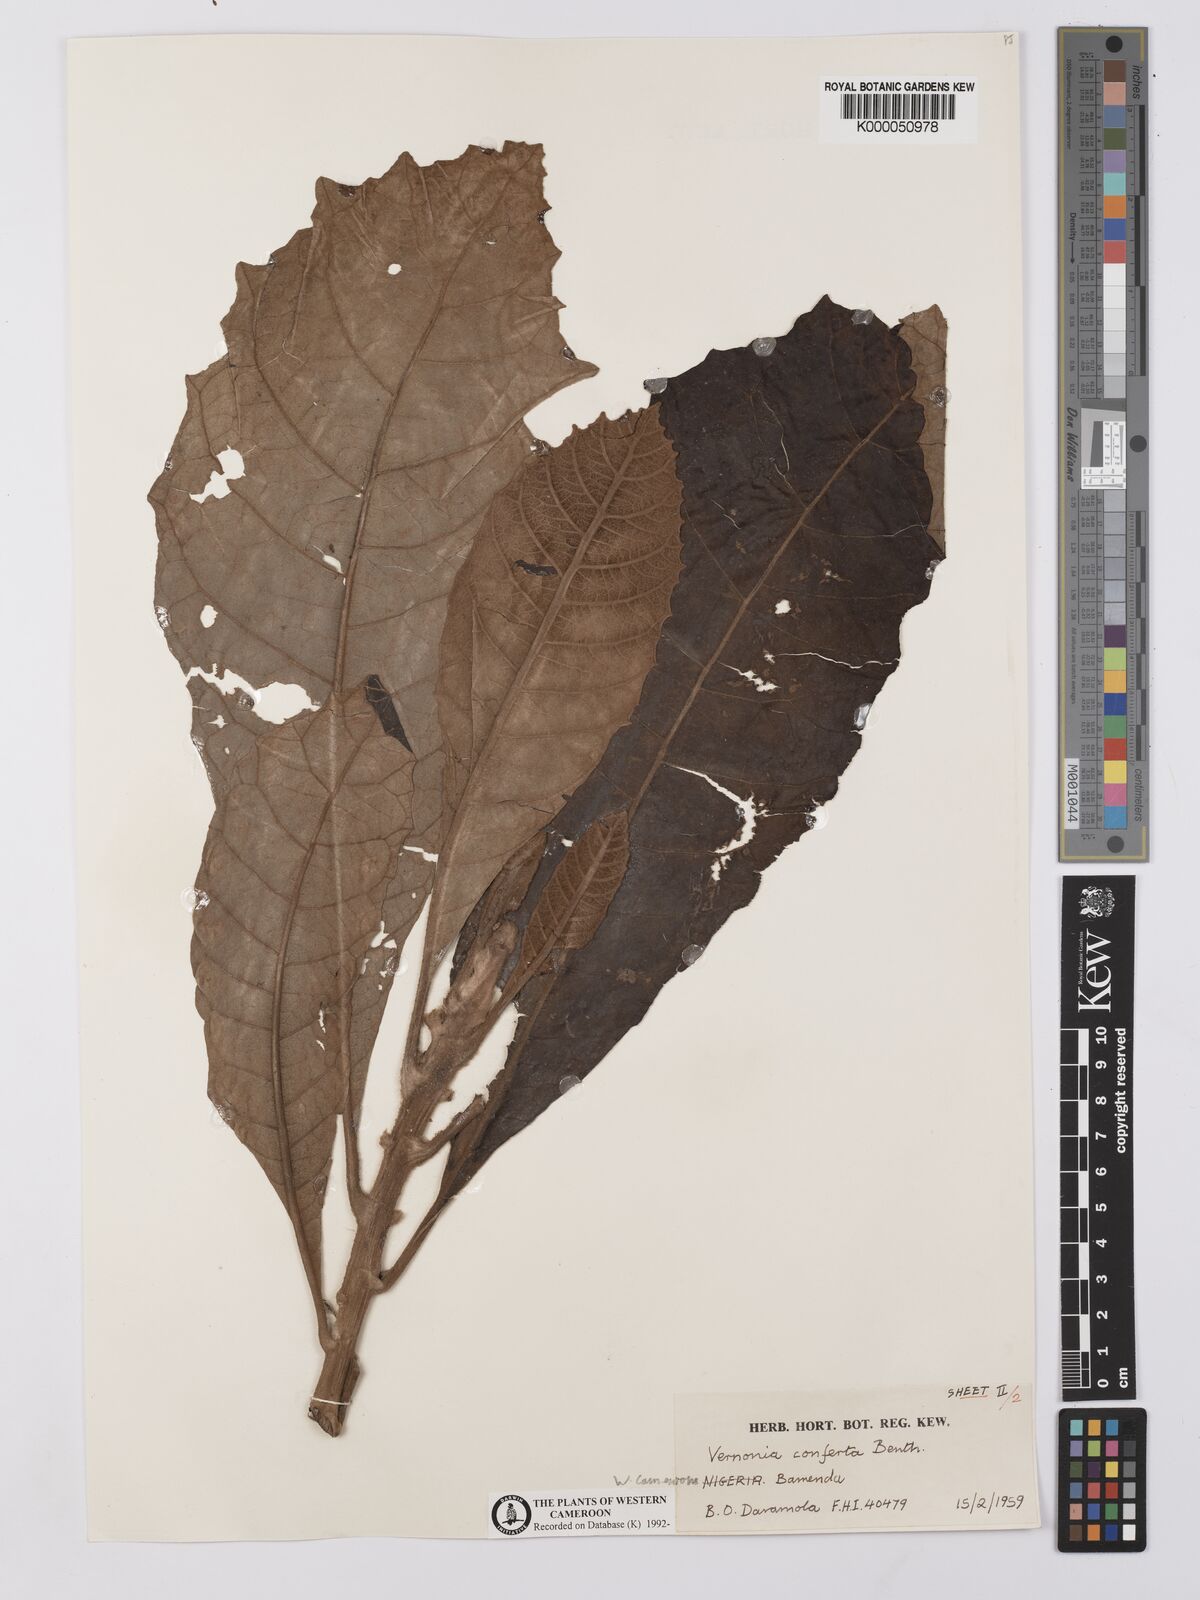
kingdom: Plantae
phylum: Tracheophyta
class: Magnoliopsida
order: Asterales
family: Asteraceae
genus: Brenandendron
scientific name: Brenandendron donianum
